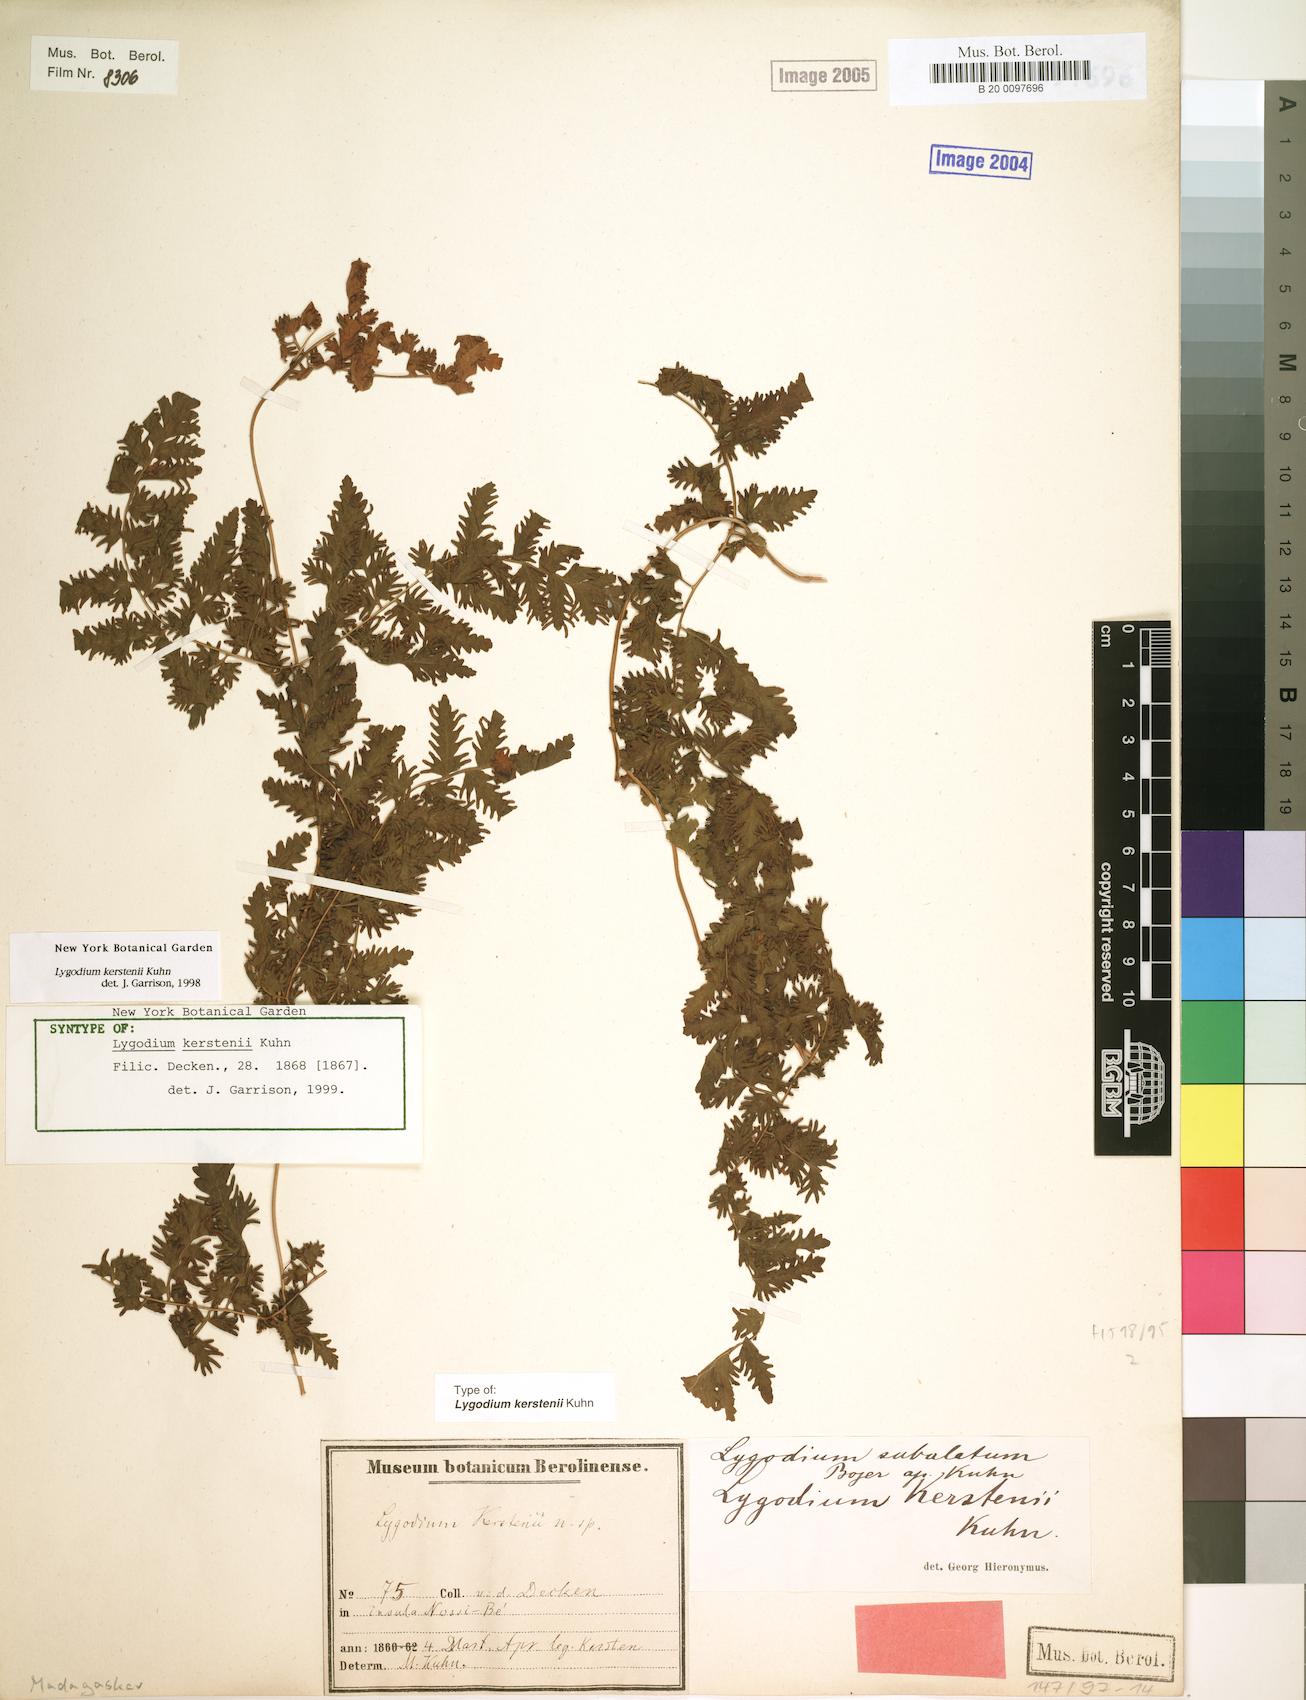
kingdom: Plantae
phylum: Tracheophyta
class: Polypodiopsida
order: Schizaeales
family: Lygodiaceae
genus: Lygodium
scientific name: Lygodium kerstenii
